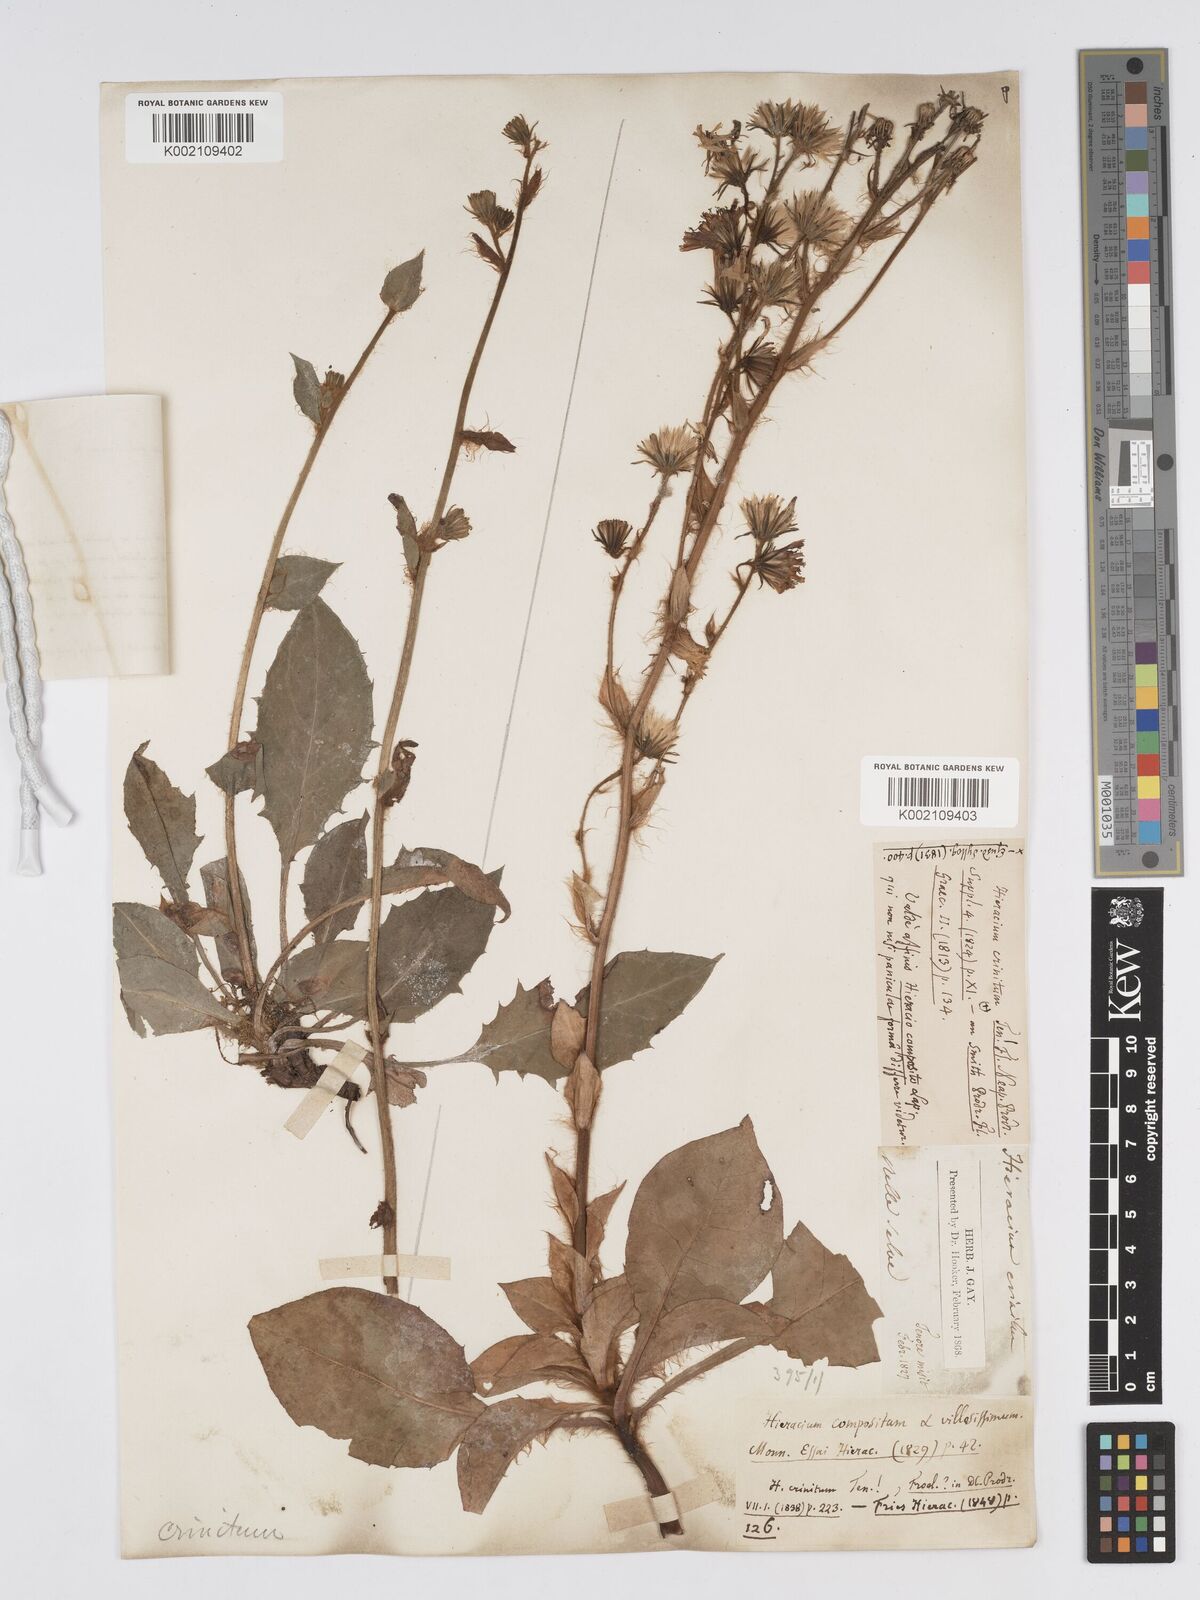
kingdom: Plantae
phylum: Tracheophyta
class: Magnoliopsida
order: Asterales
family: Asteraceae
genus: Hieracium
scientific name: Hieracium racemosum
